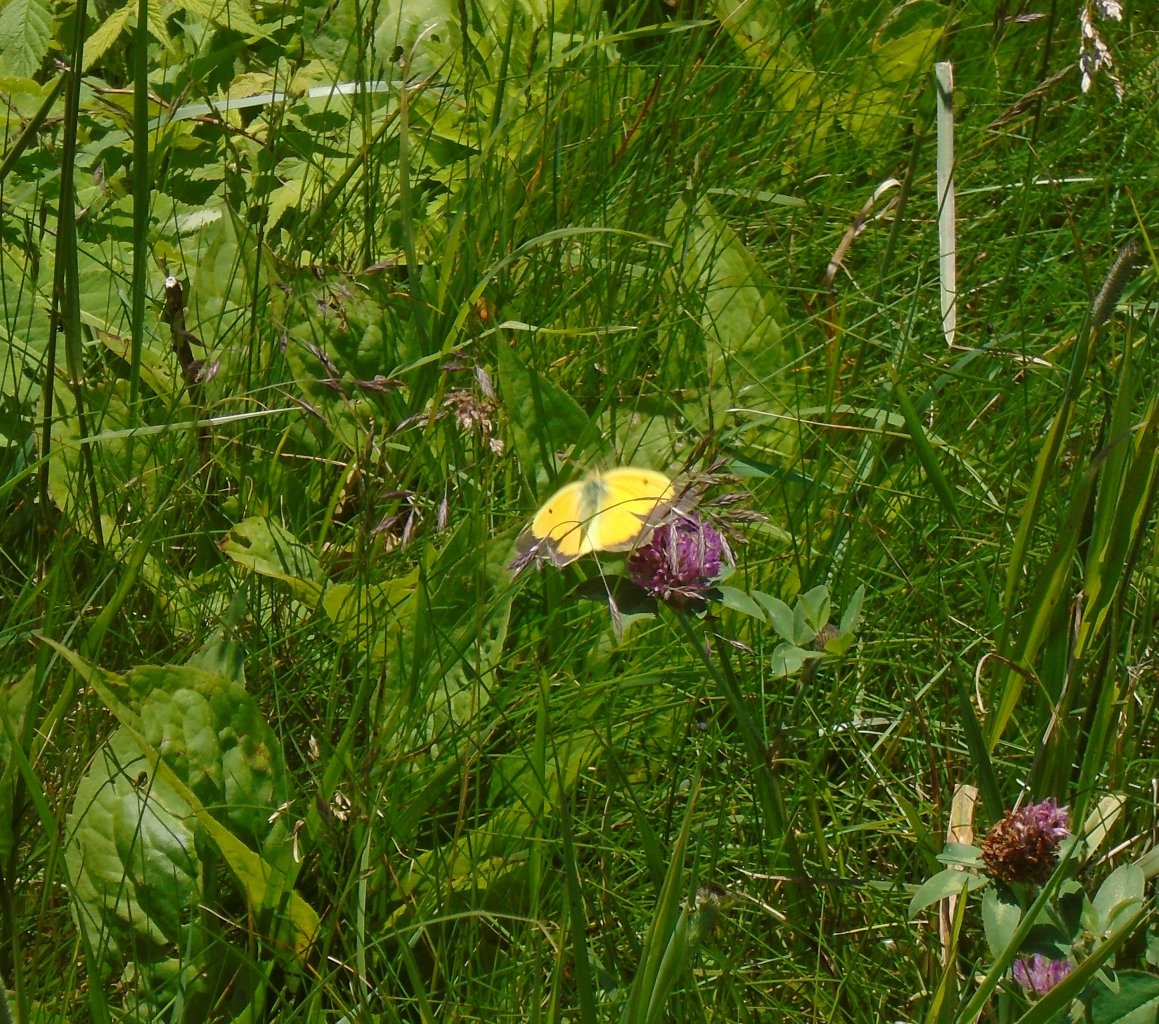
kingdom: Animalia
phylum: Arthropoda
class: Insecta
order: Lepidoptera
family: Pieridae
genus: Colias
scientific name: Colias eurytheme
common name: Orange Sulphur
